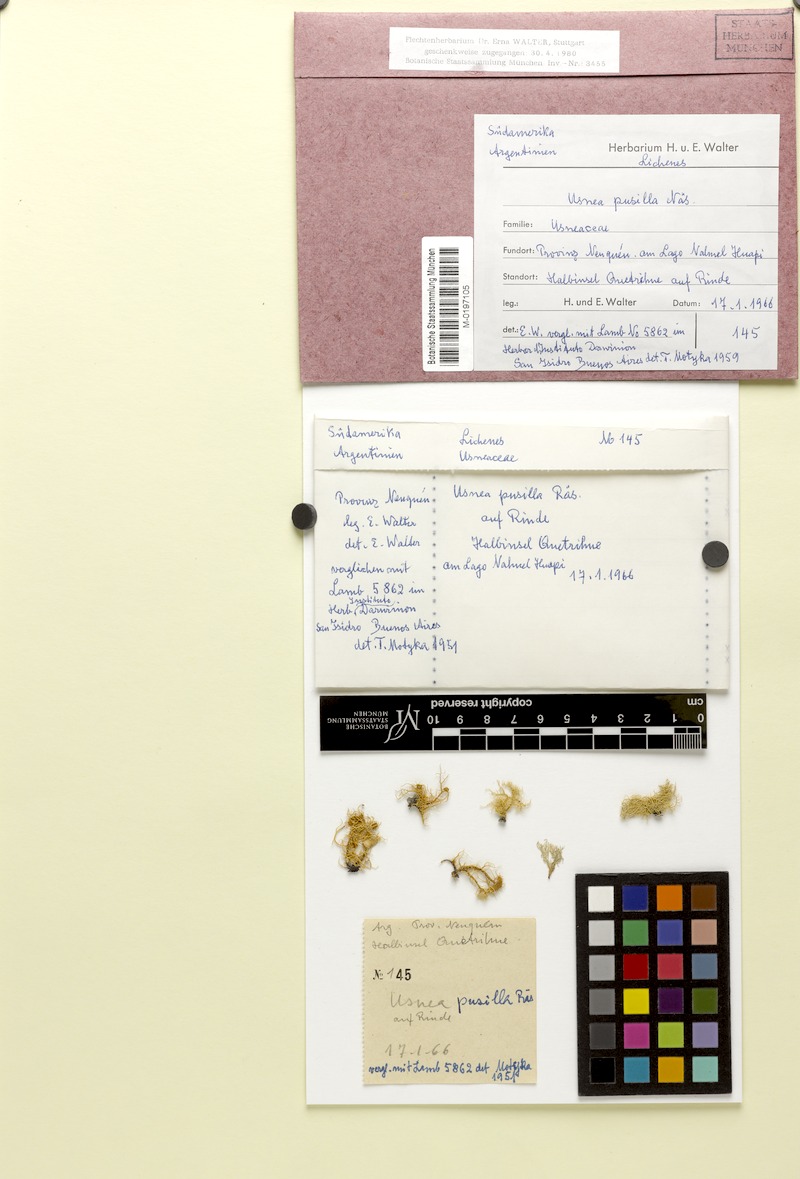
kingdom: Fungi
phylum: Ascomycota
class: Lecanoromycetes
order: Lecanorales
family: Parmeliaceae
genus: Usnea
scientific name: Usnea
